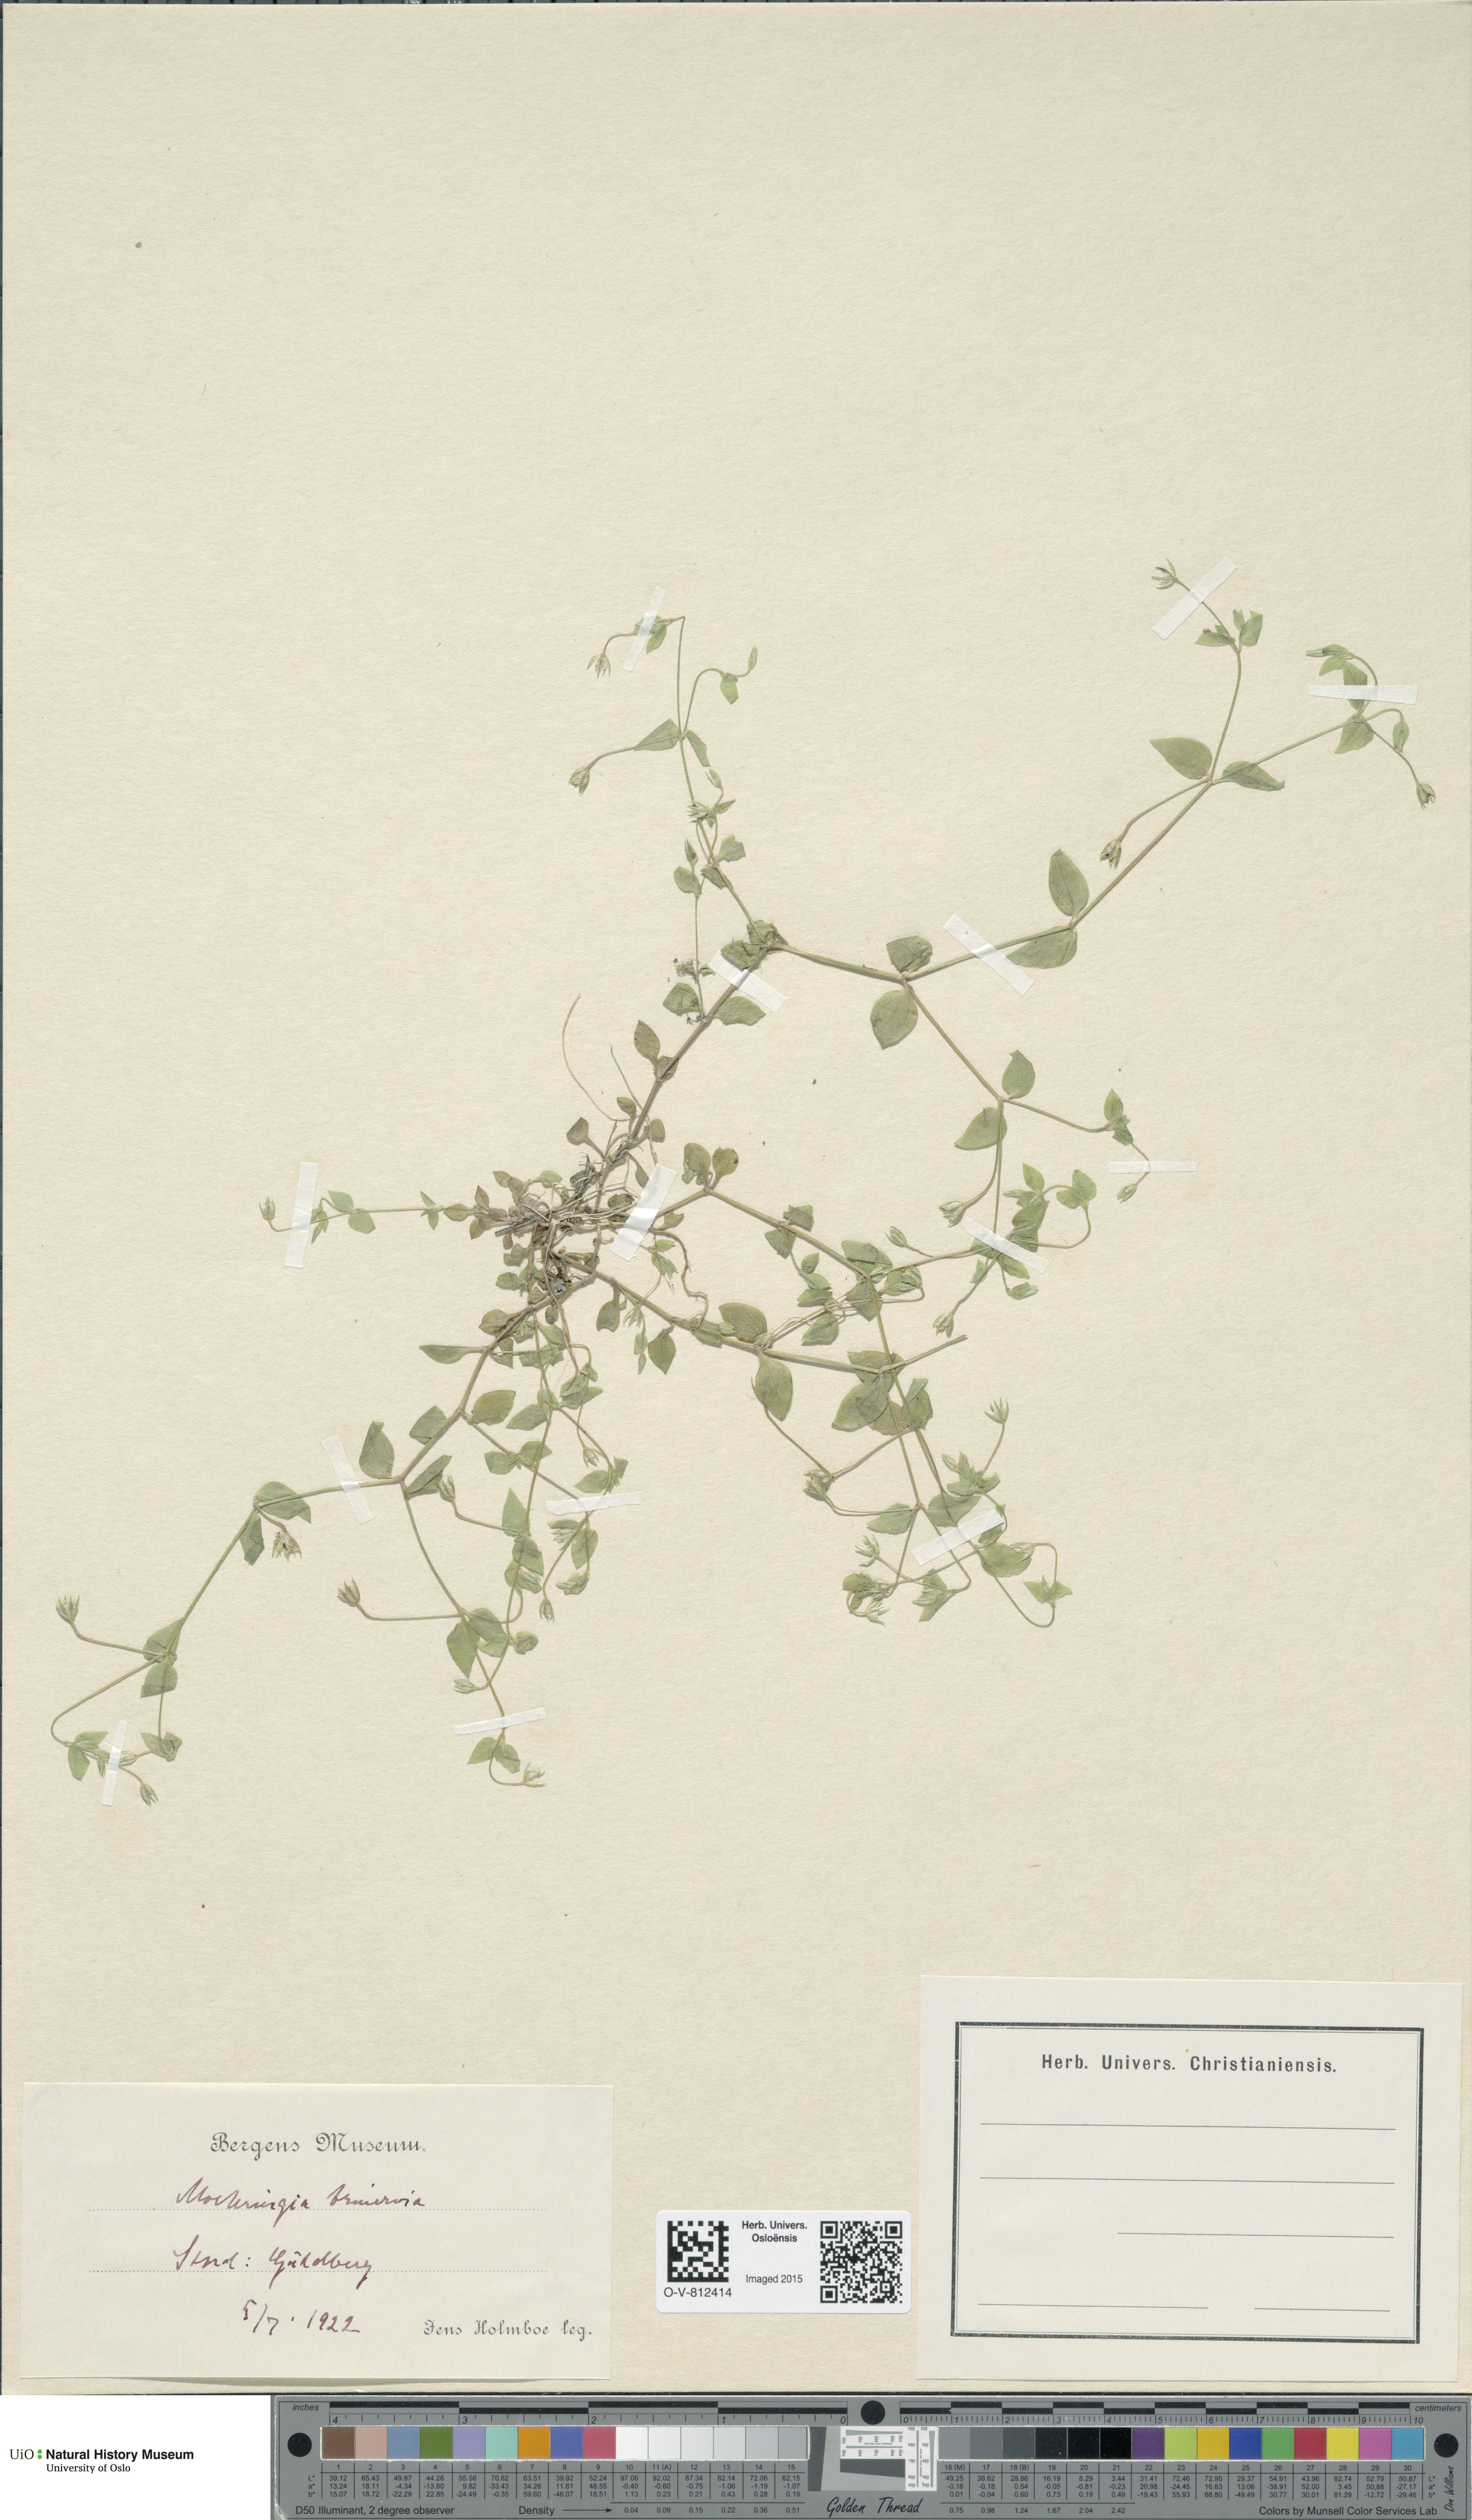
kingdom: Plantae
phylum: Tracheophyta
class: Magnoliopsida
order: Caryophyllales
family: Caryophyllaceae
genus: Moehringia
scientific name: Moehringia trinervia
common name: Three-nerved sandwort
